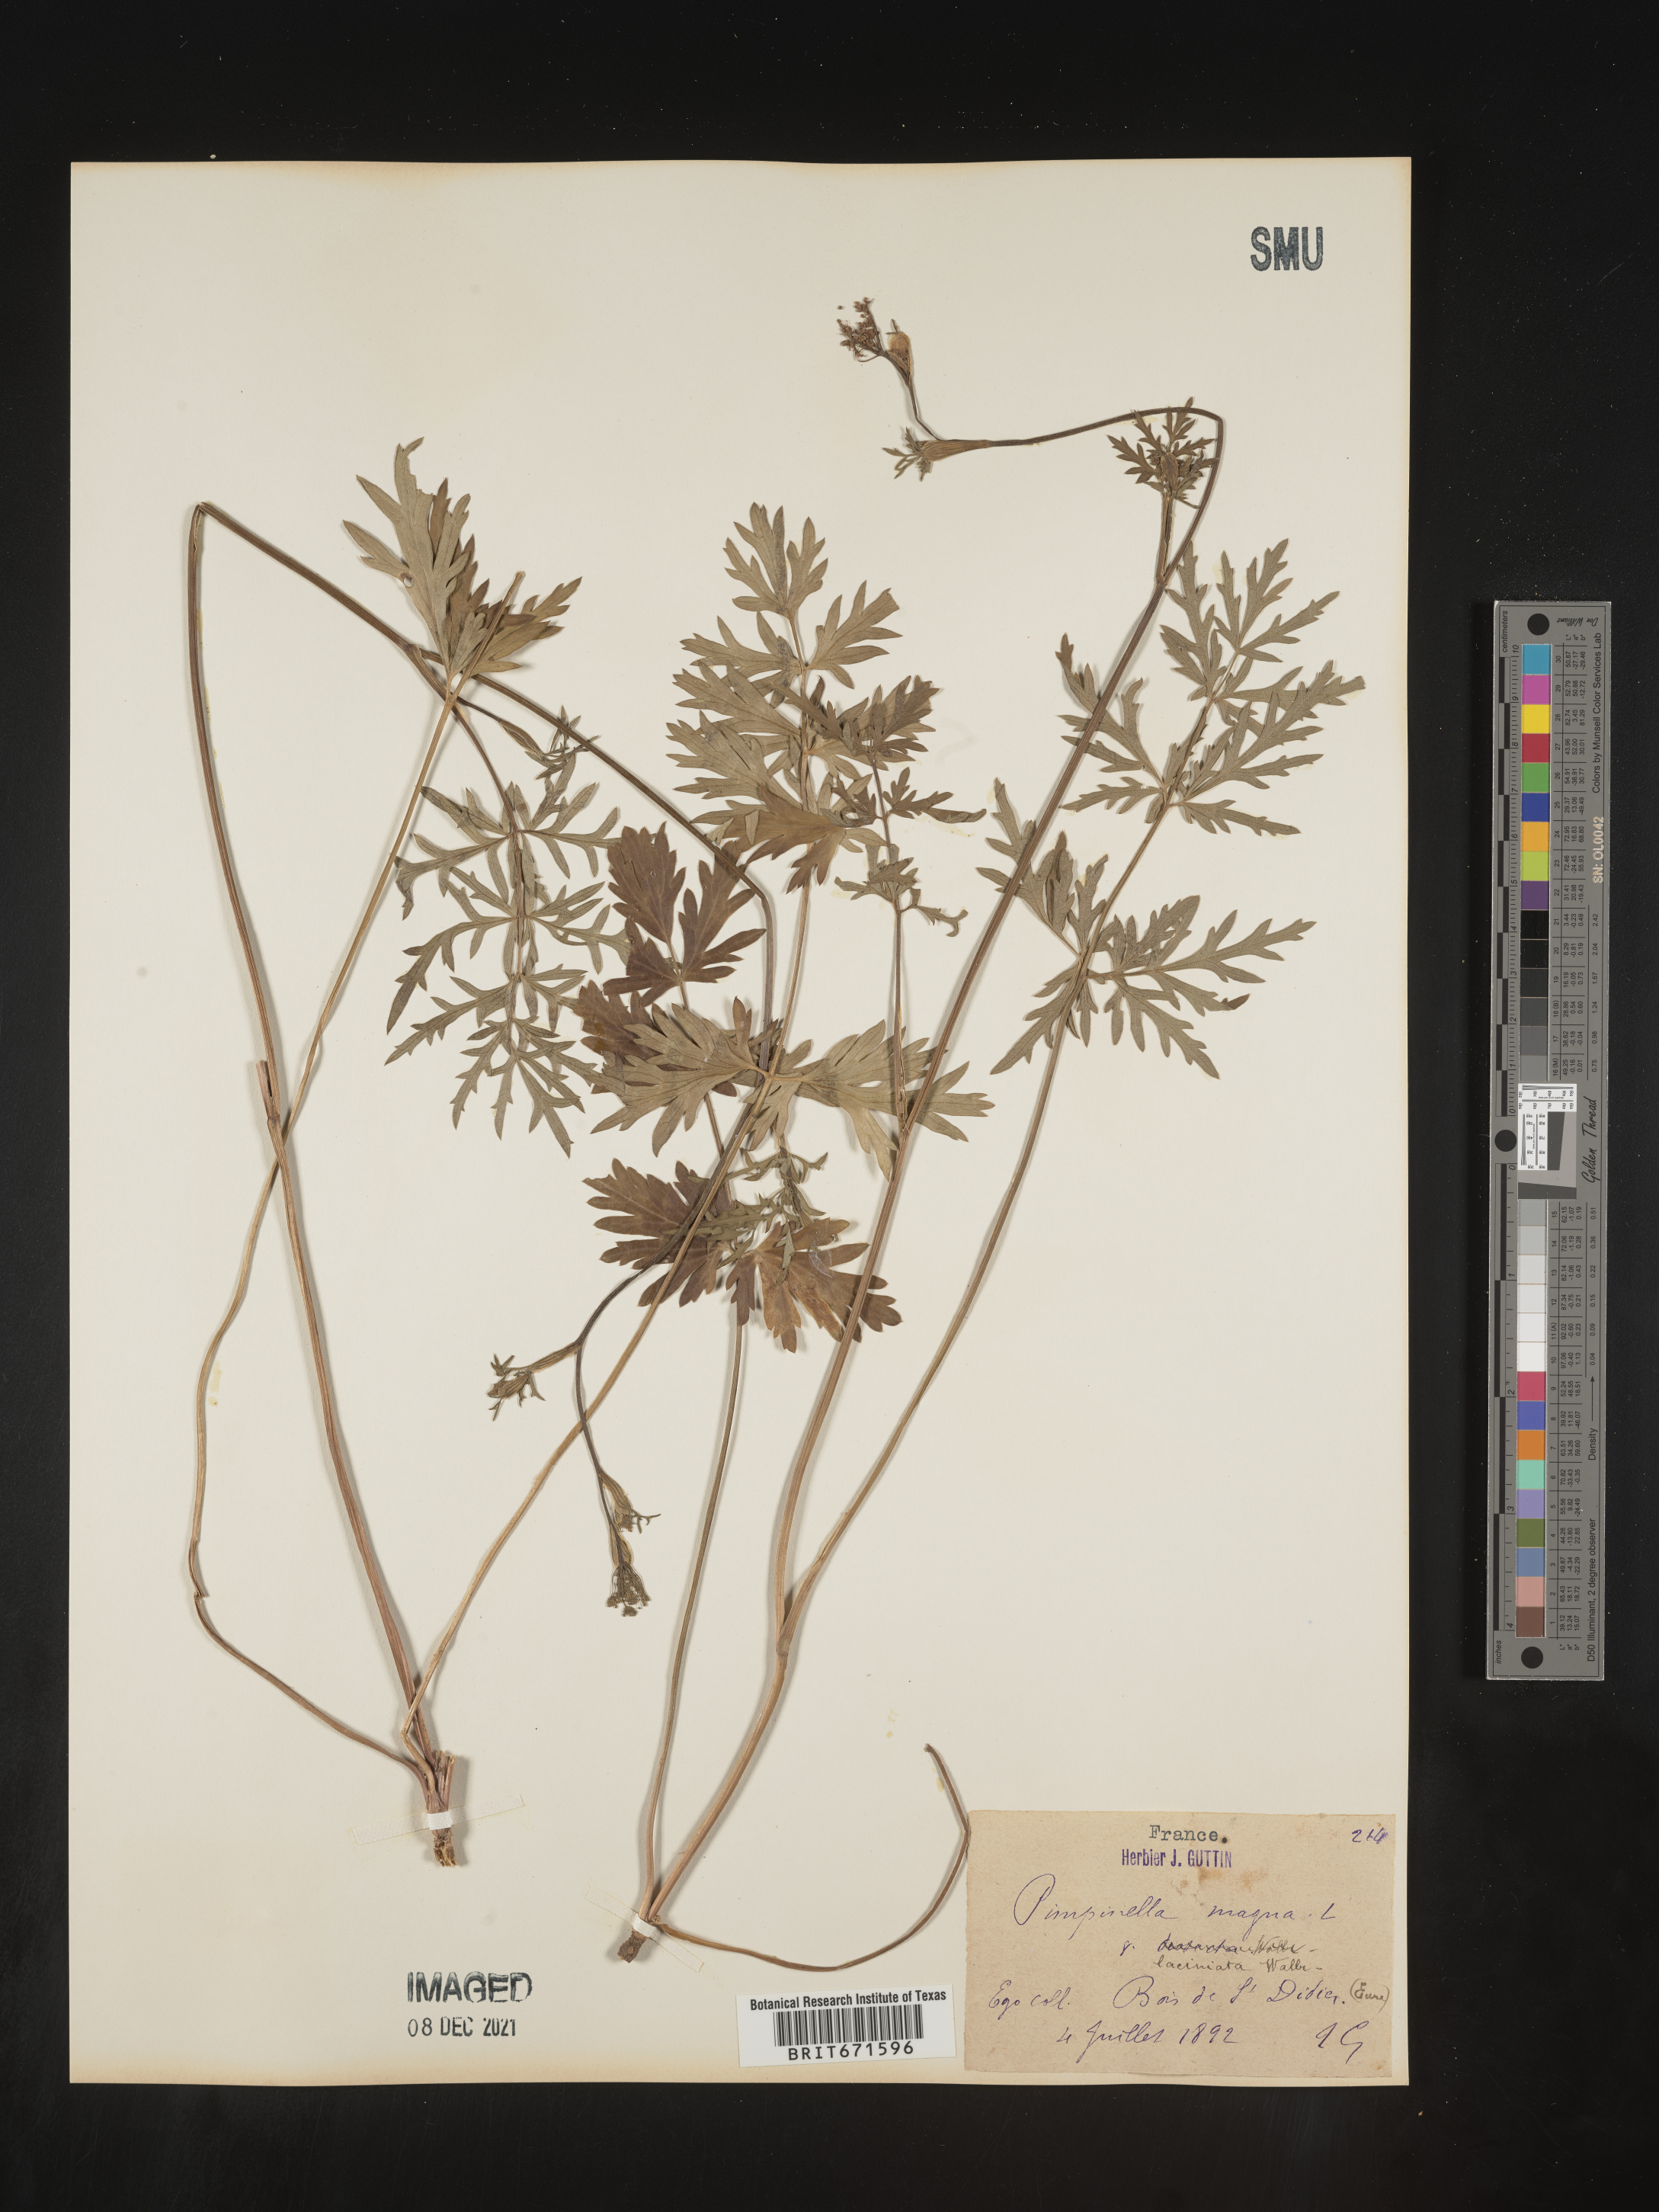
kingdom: Plantae
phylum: Tracheophyta
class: Magnoliopsida
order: Apiales
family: Apiaceae
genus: Pimpinella
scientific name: Pimpinella
